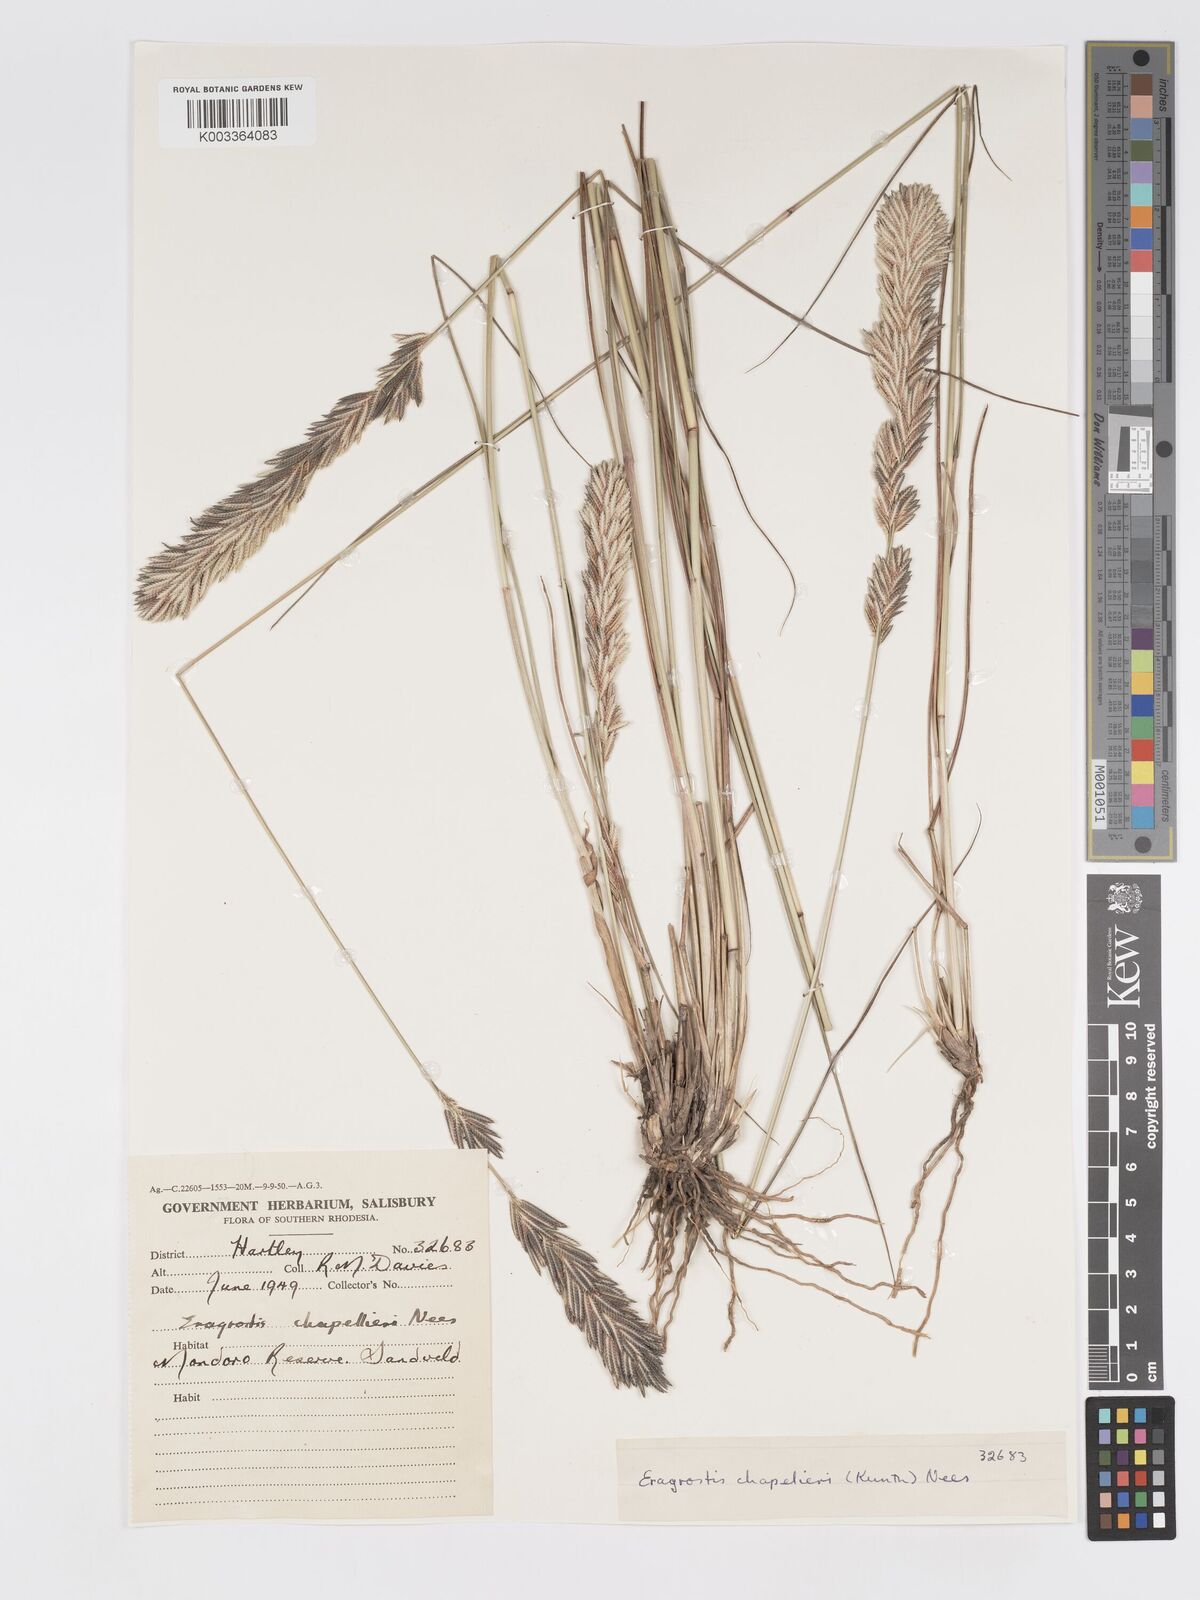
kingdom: Plantae
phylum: Tracheophyta
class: Liliopsida
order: Poales
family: Poaceae
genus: Eragrostis
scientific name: Eragrostis chapelieri
